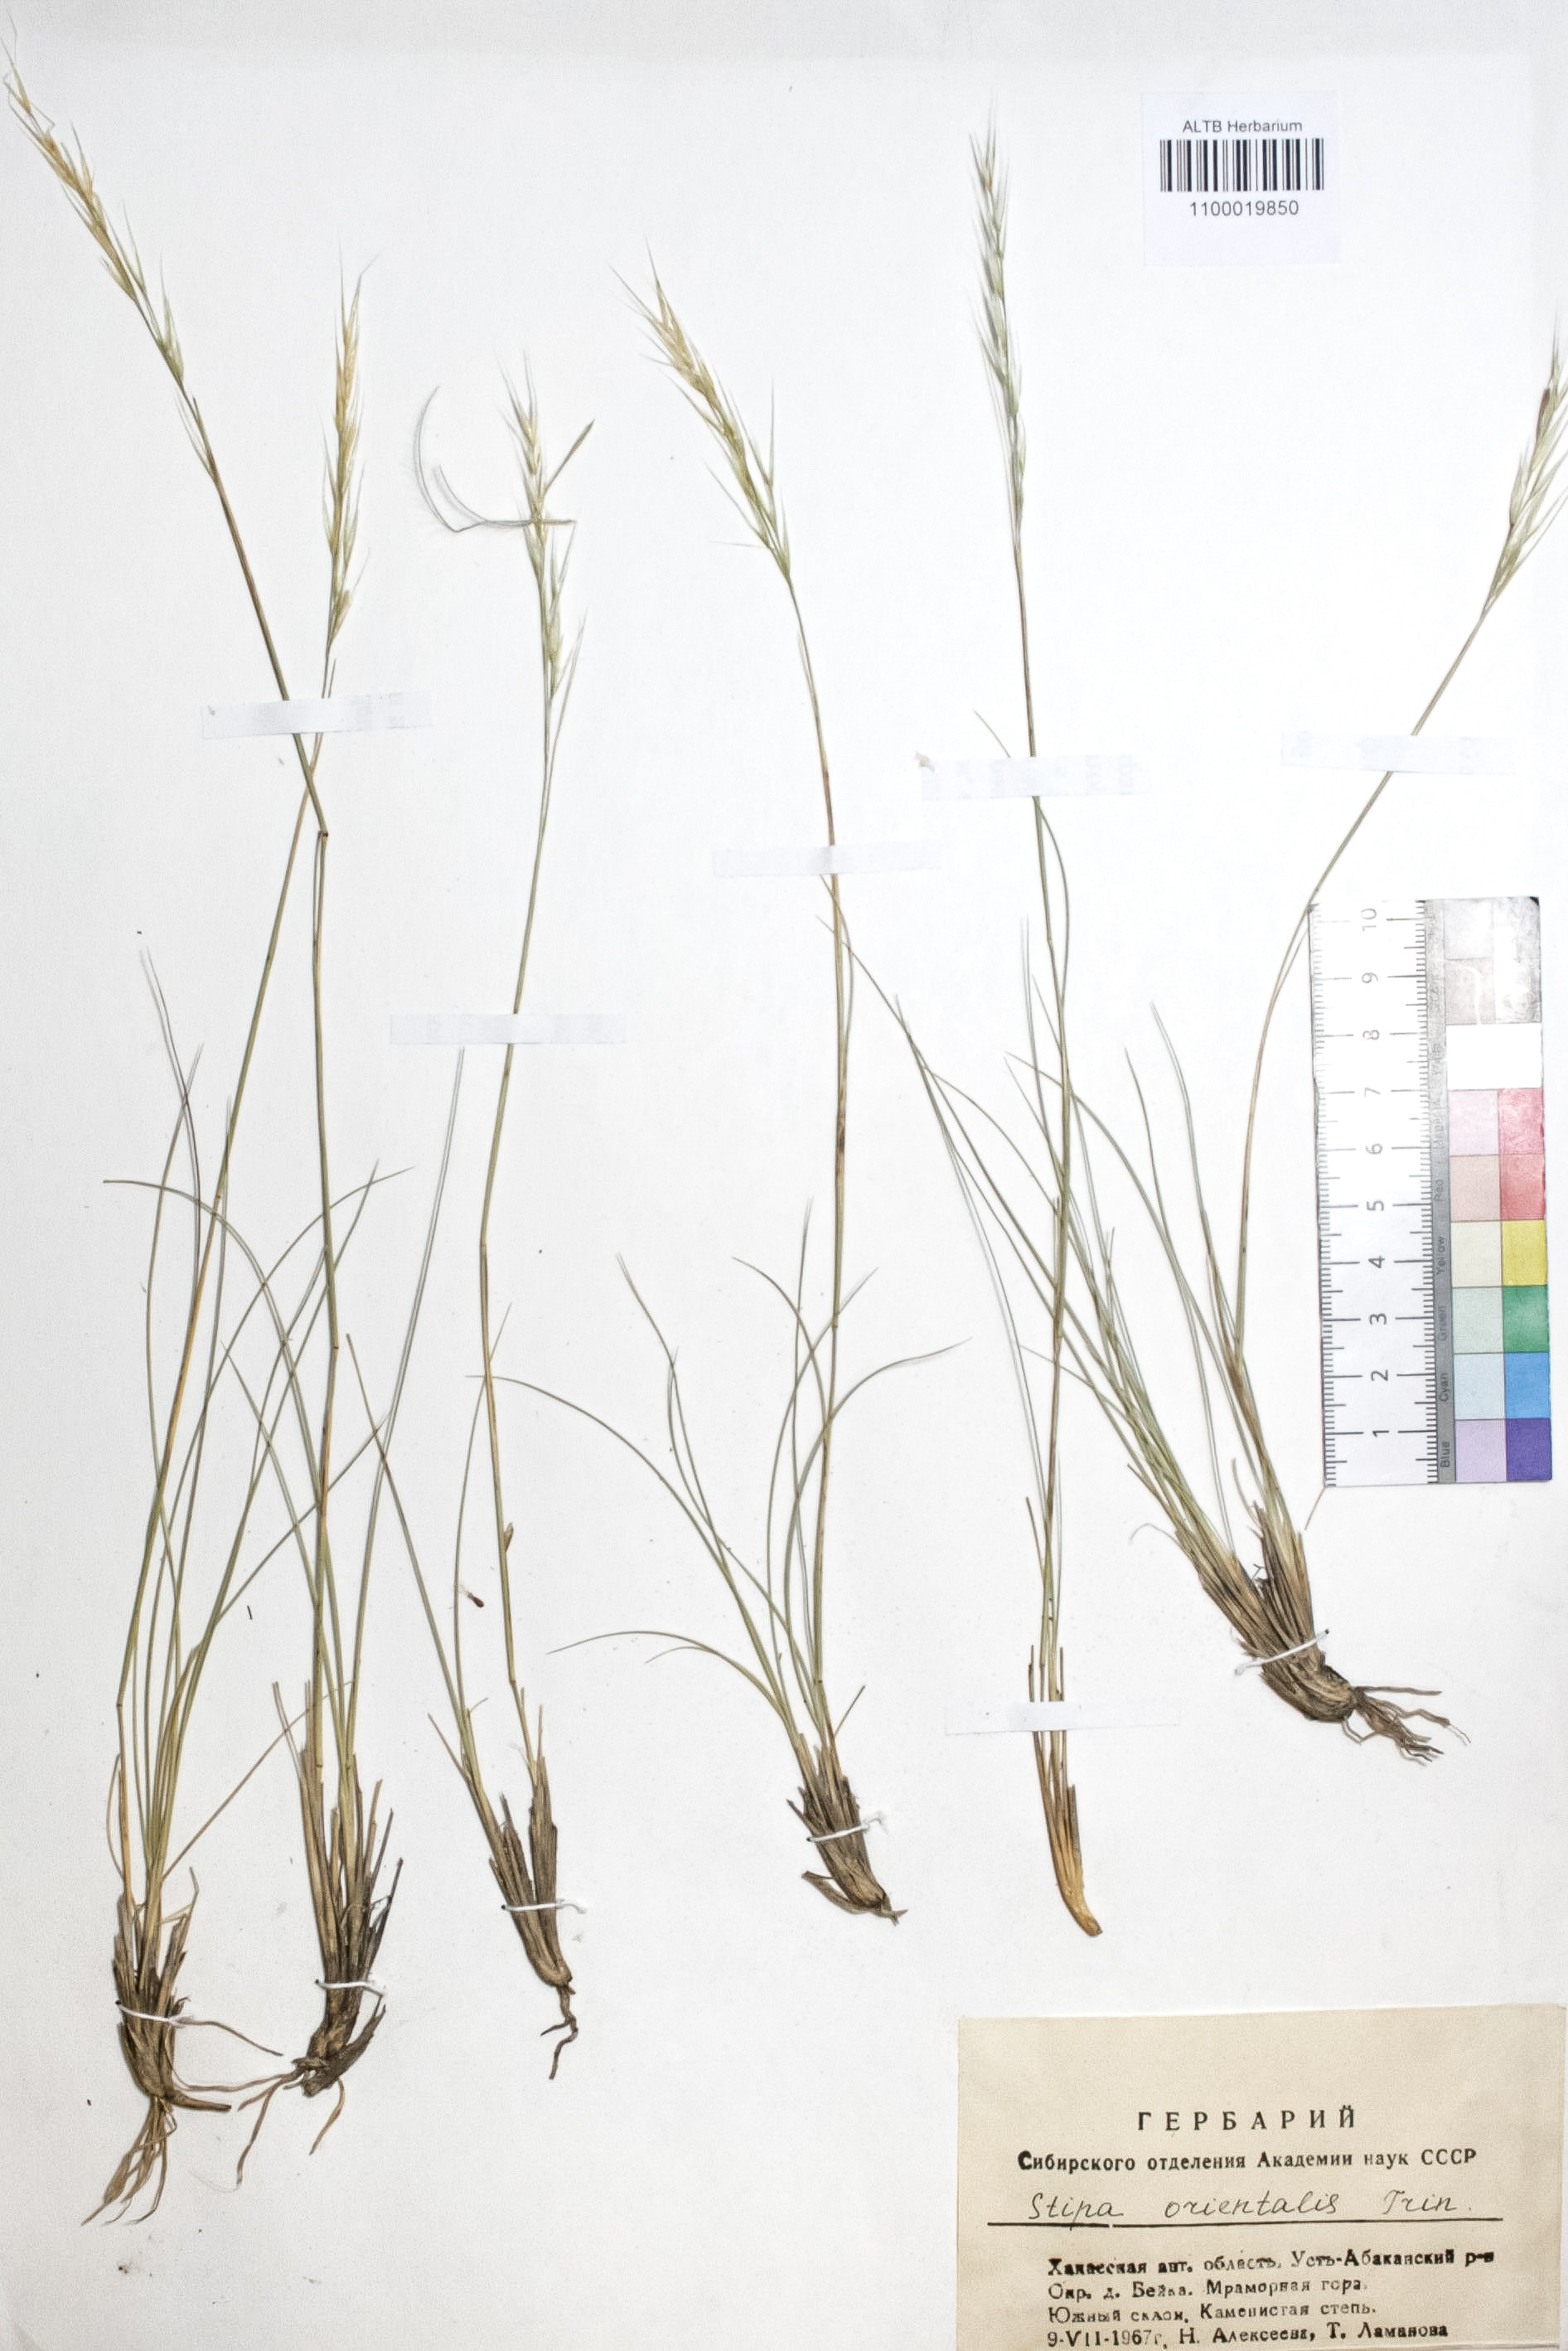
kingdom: Plantae
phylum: Tracheophyta
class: Liliopsida
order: Poales
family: Poaceae
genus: Stipa
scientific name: Stipa orientalis
